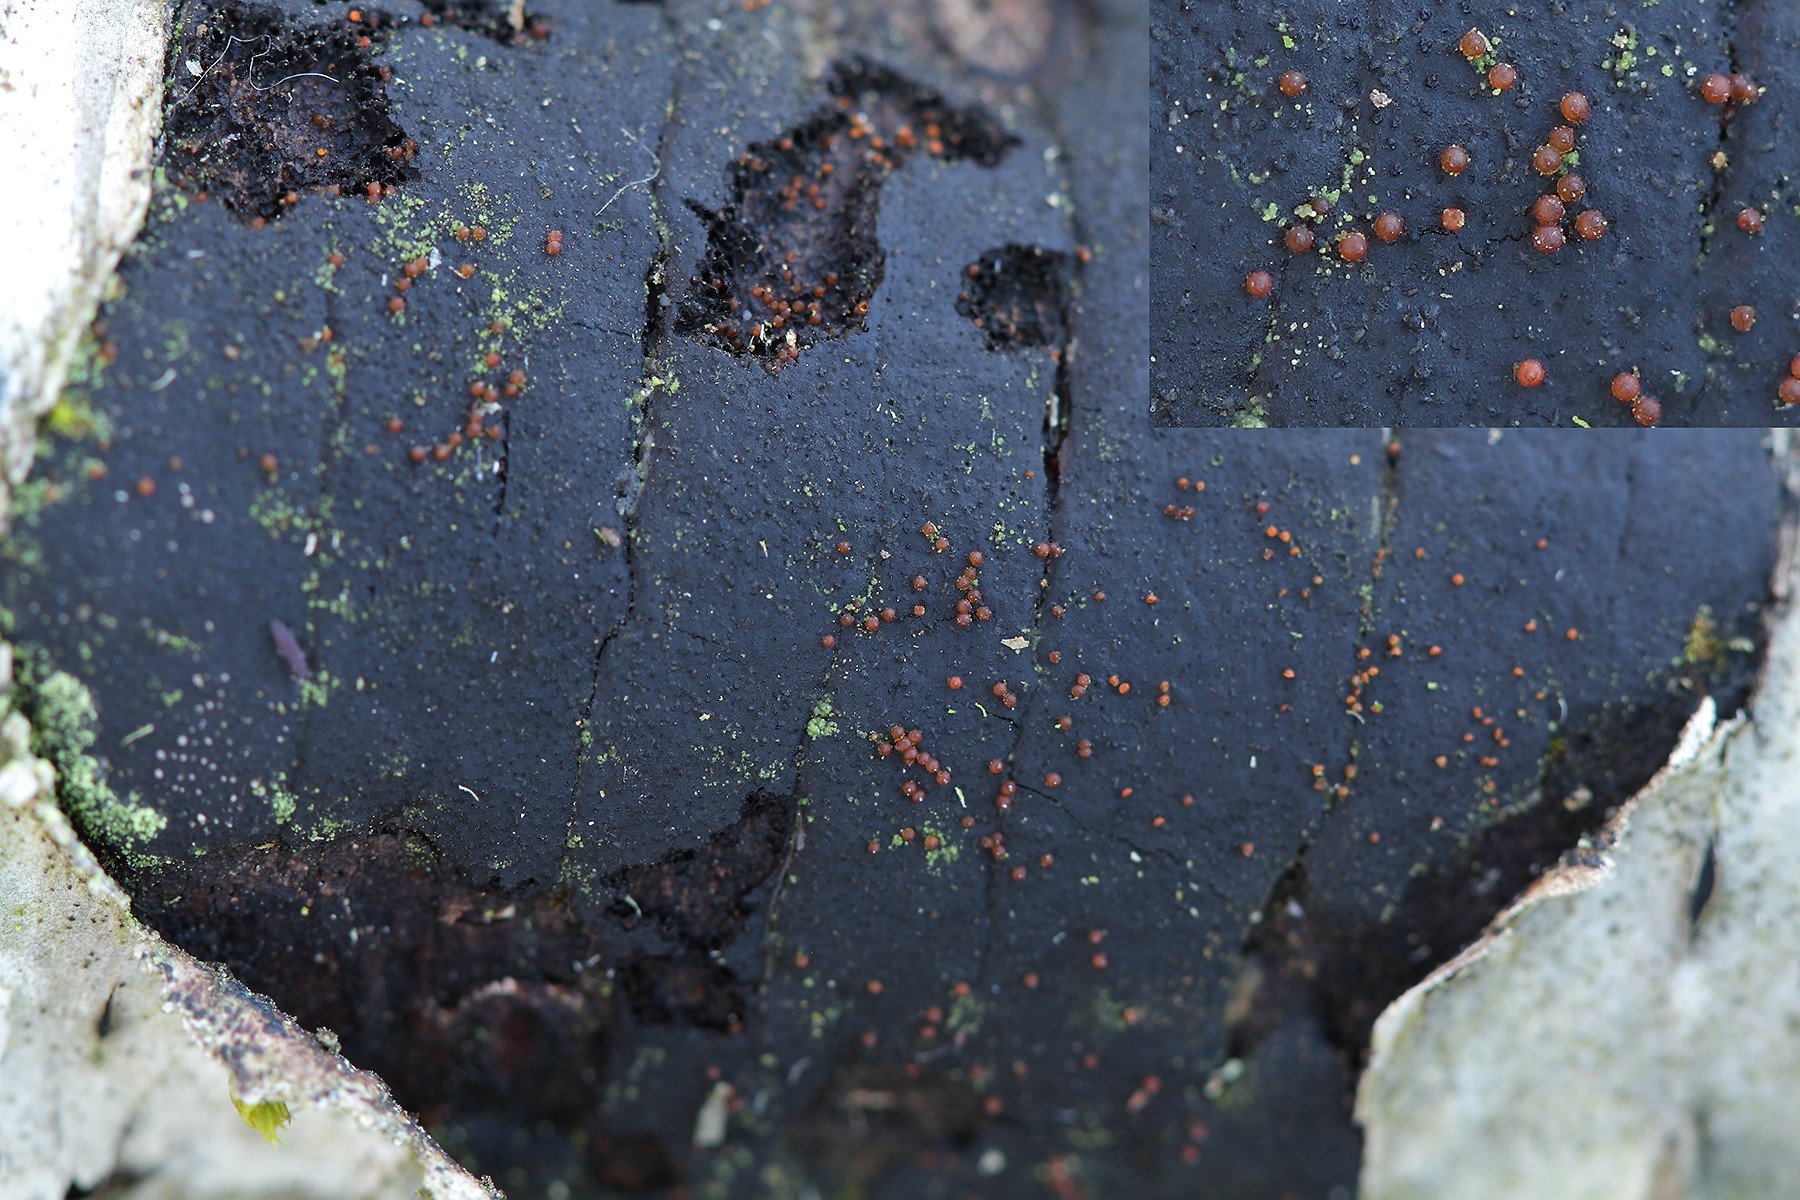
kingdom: Fungi
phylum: Ascomycota
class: Sordariomycetes
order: Hypocreales
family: Nectriaceae
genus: Dialonectria
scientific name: Dialonectria episphaeria
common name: kulskorpe-cinnobersvamp
